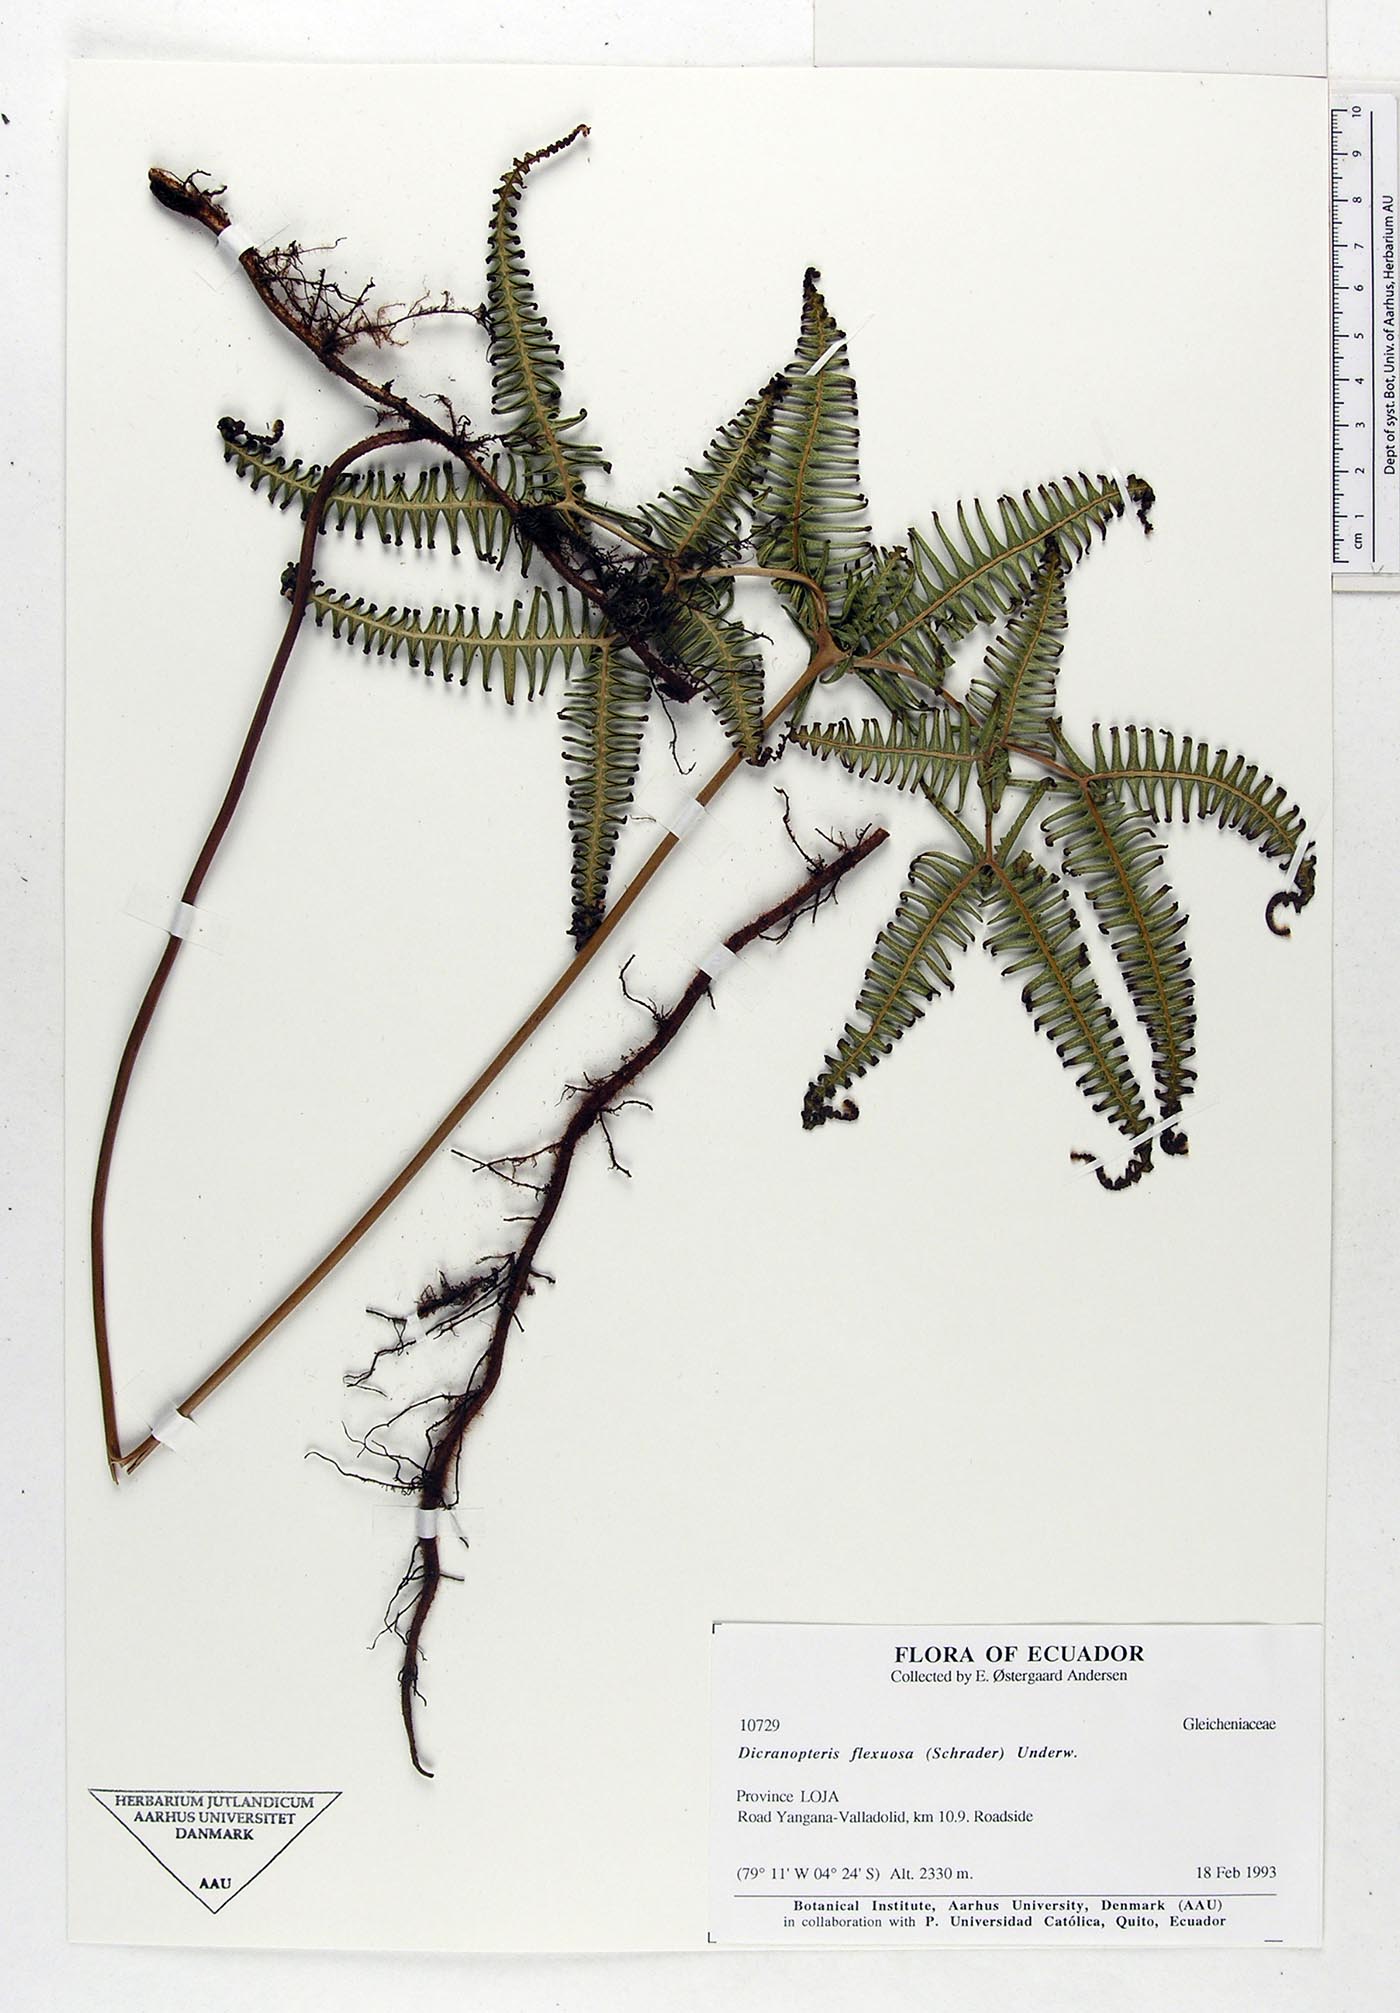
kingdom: Plantae
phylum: Tracheophyta
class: Polypodiopsida
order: Gleicheniales
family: Gleicheniaceae
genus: Dicranopteris
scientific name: Dicranopteris flexuosa
